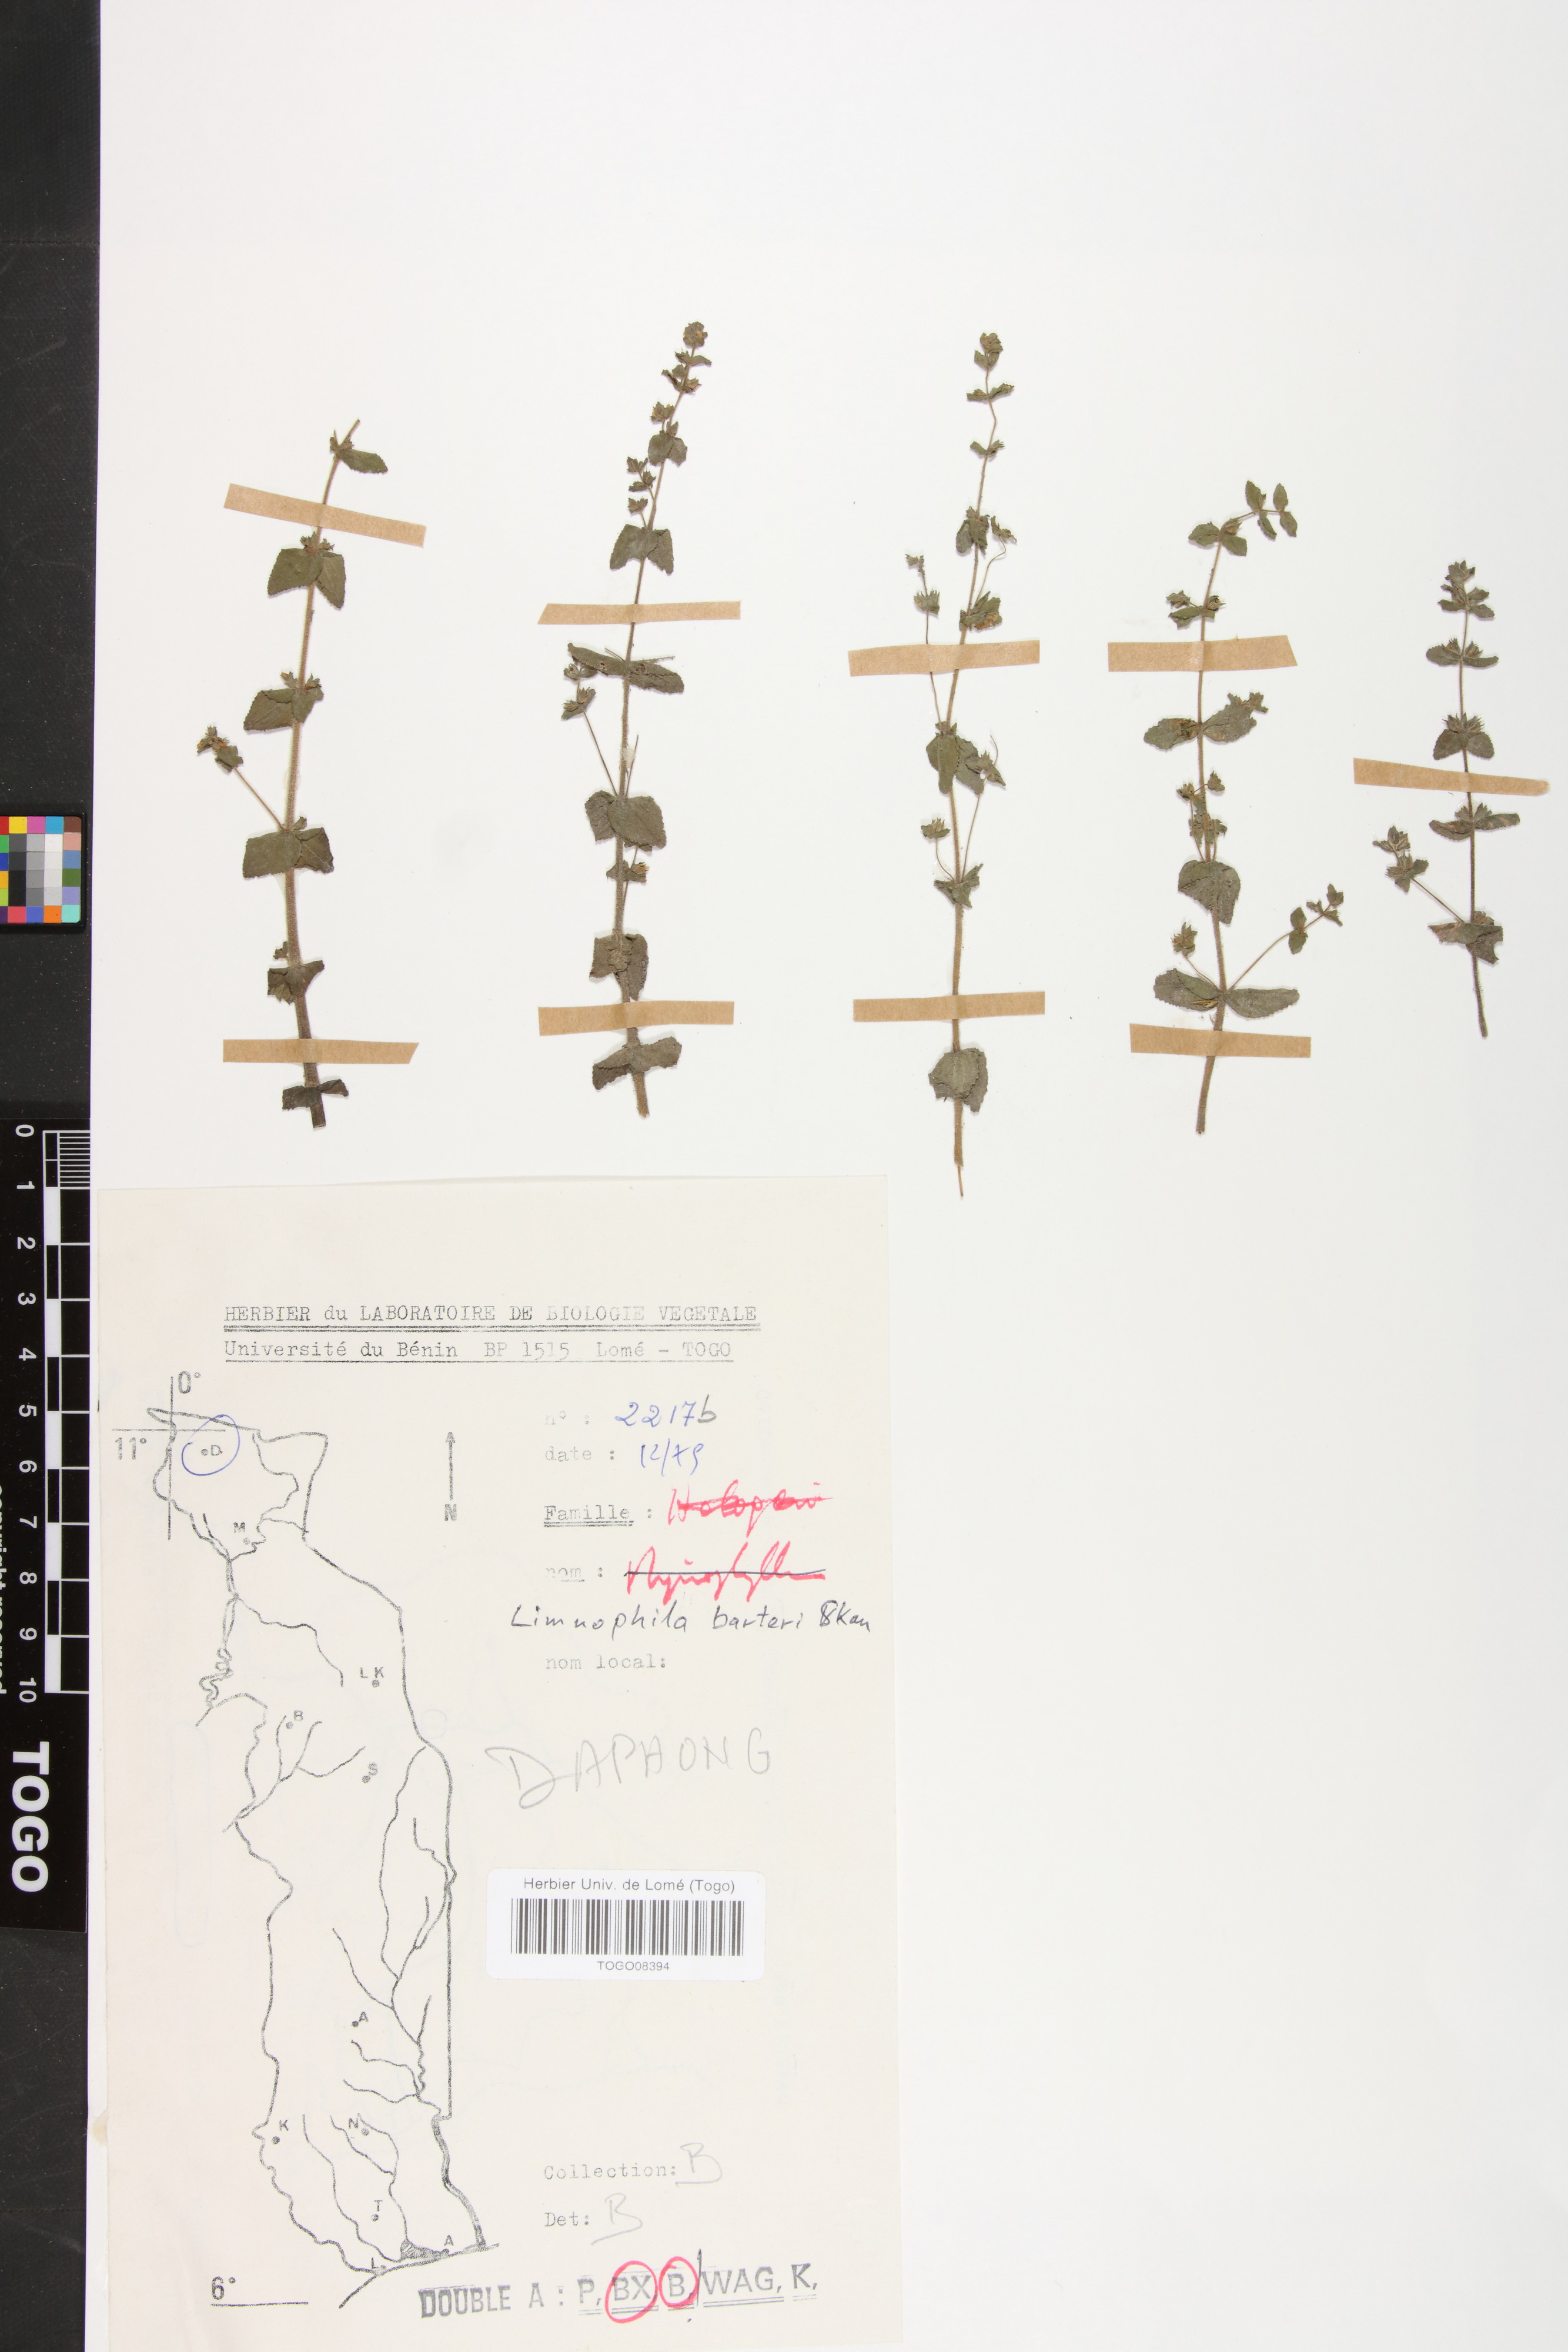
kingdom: Plantae
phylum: Tracheophyta
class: Magnoliopsida
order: Lamiales
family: Plantaginaceae
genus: Limnophila
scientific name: Limnophila barteri
